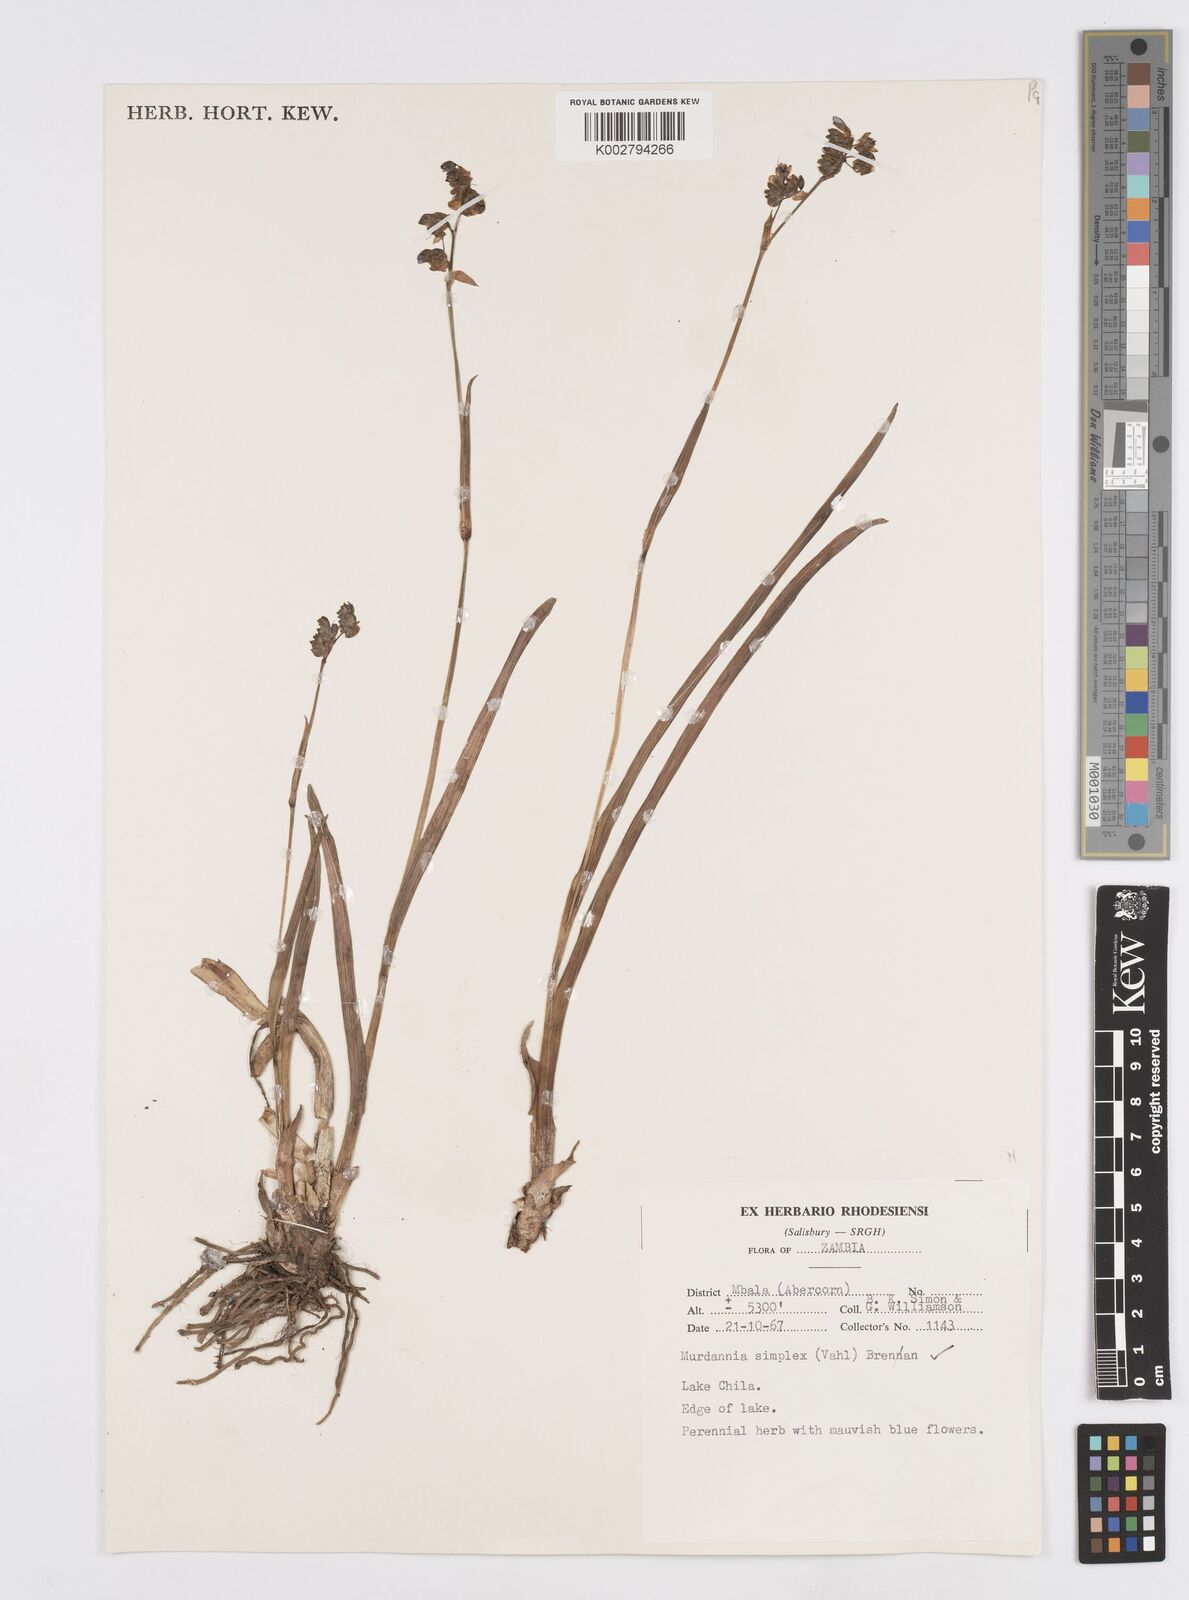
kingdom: Plantae
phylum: Tracheophyta
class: Liliopsida
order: Commelinales
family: Commelinaceae
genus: Murdannia
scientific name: Murdannia simplex
